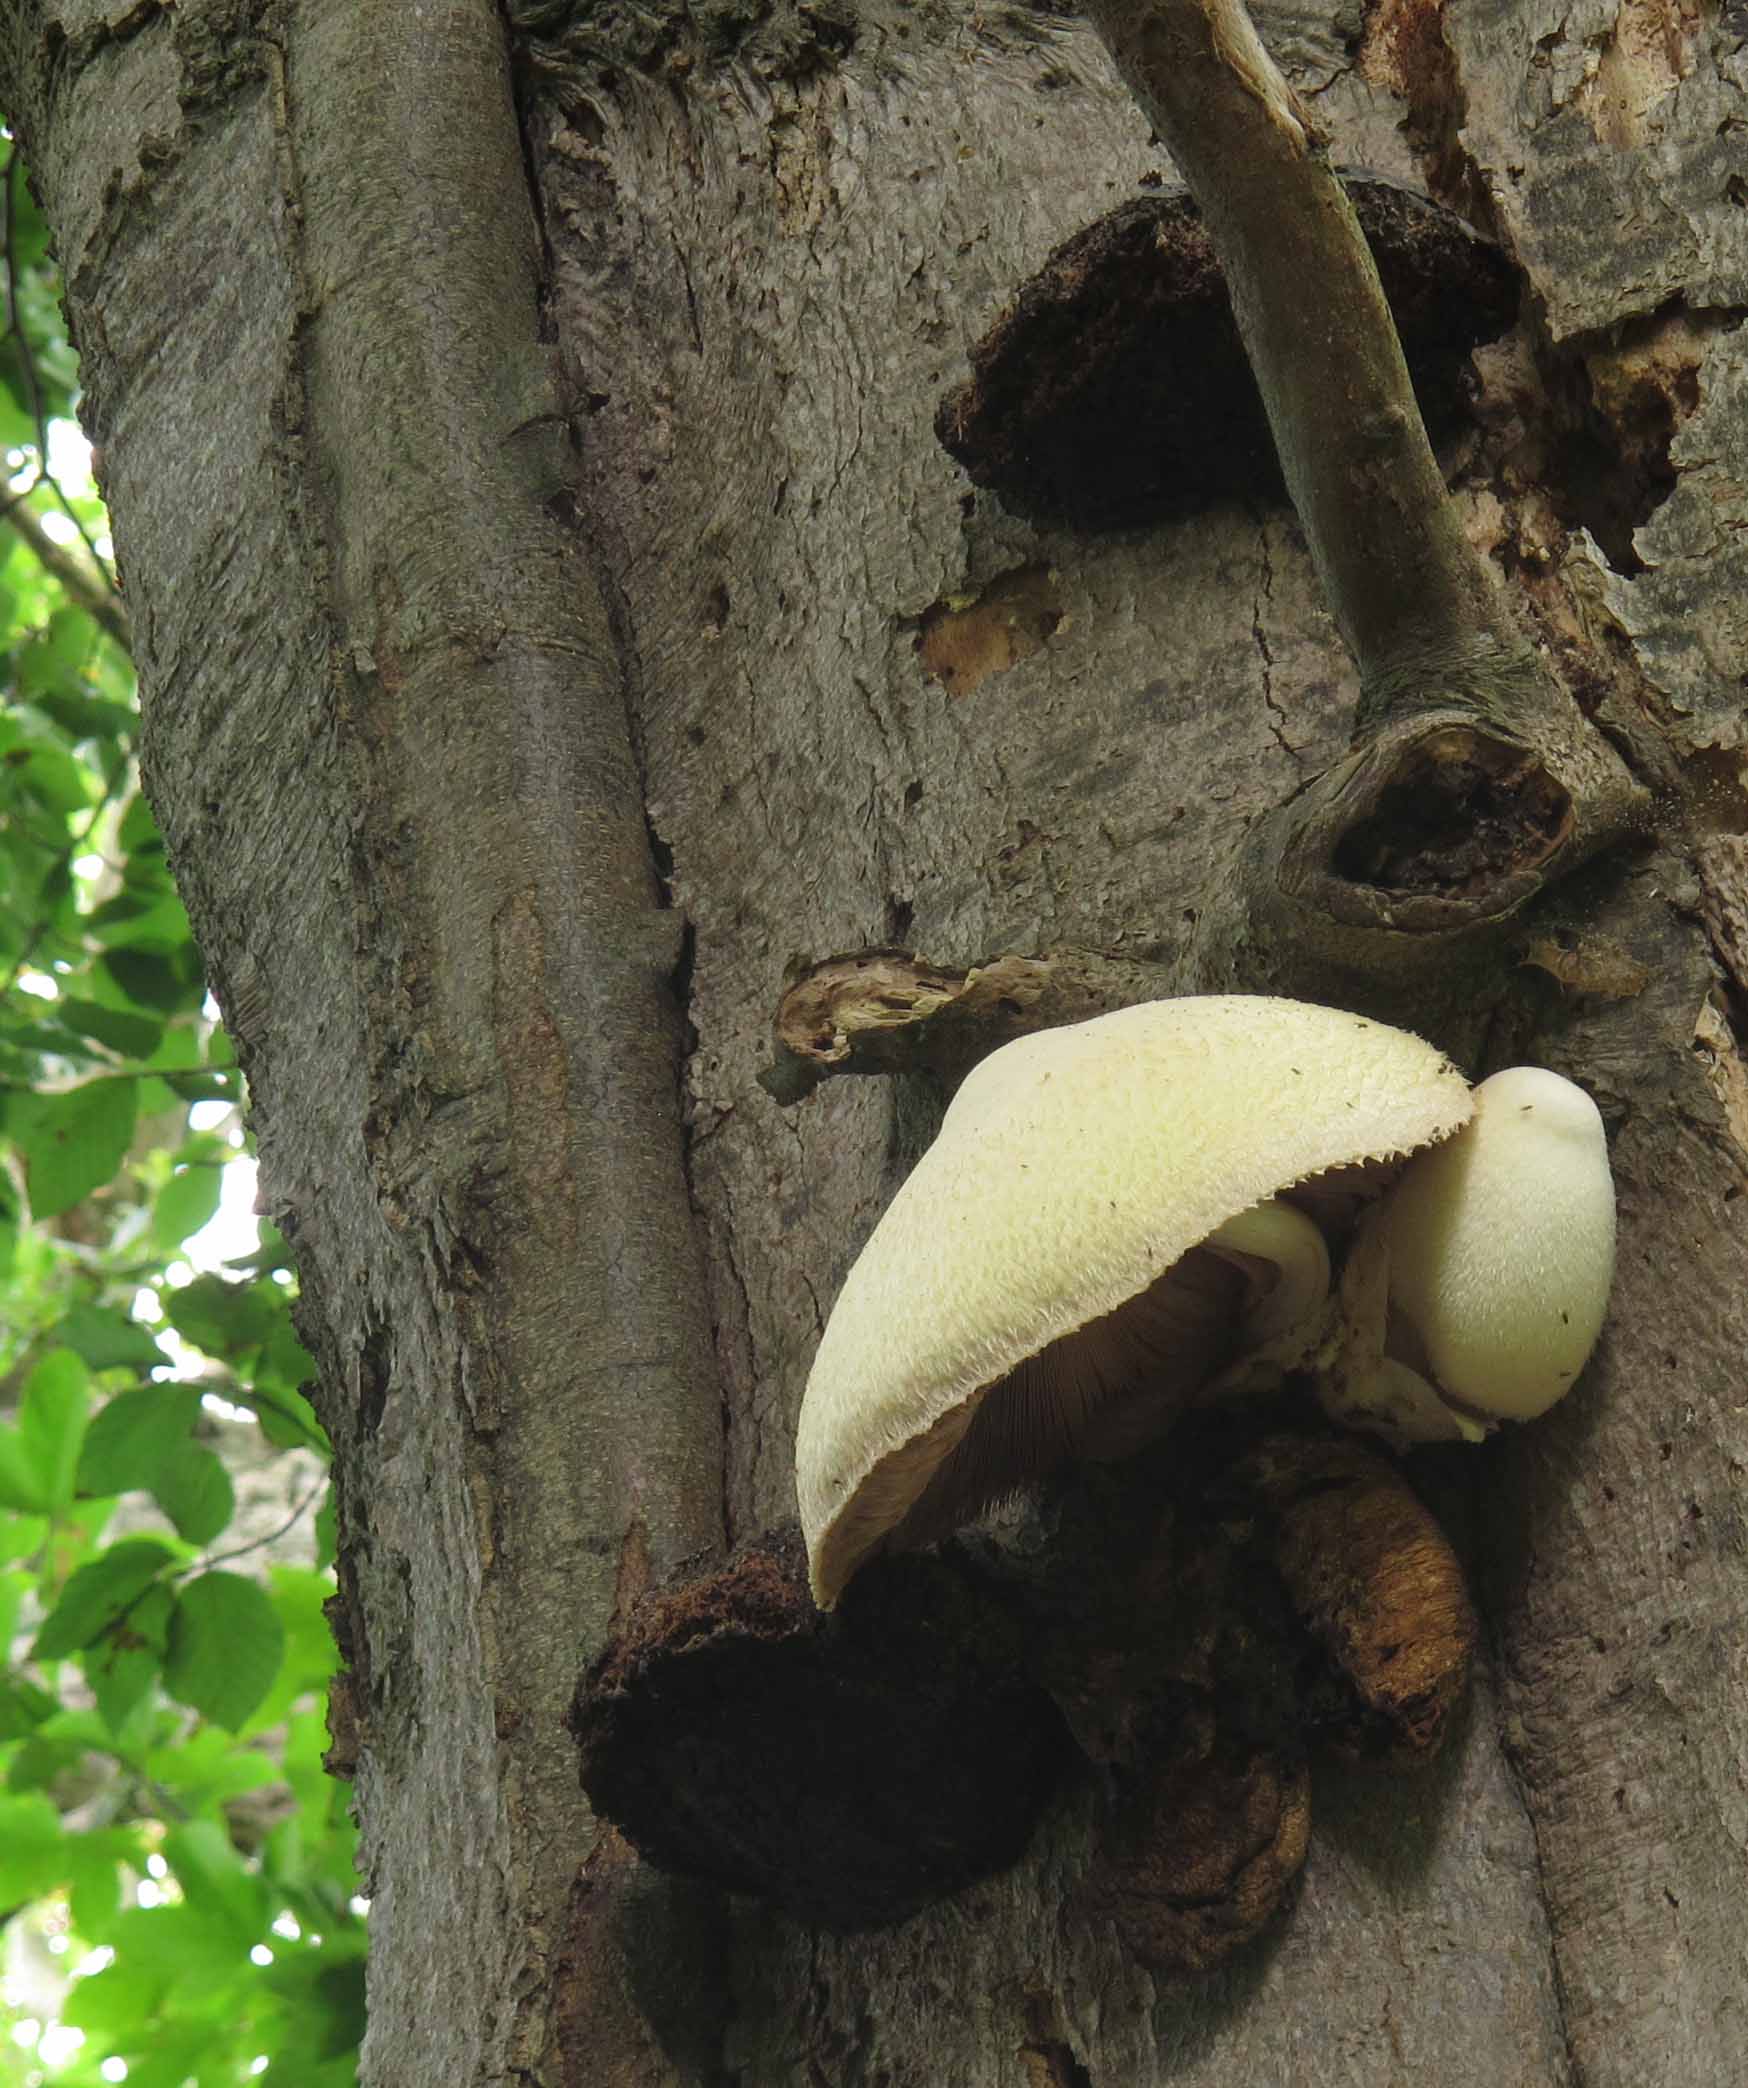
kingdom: Fungi
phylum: Basidiomycota
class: Agaricomycetes
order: Agaricales
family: Pluteaceae
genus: Volvariella
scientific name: Volvariella bombycina
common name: silkehåret posesvamp
